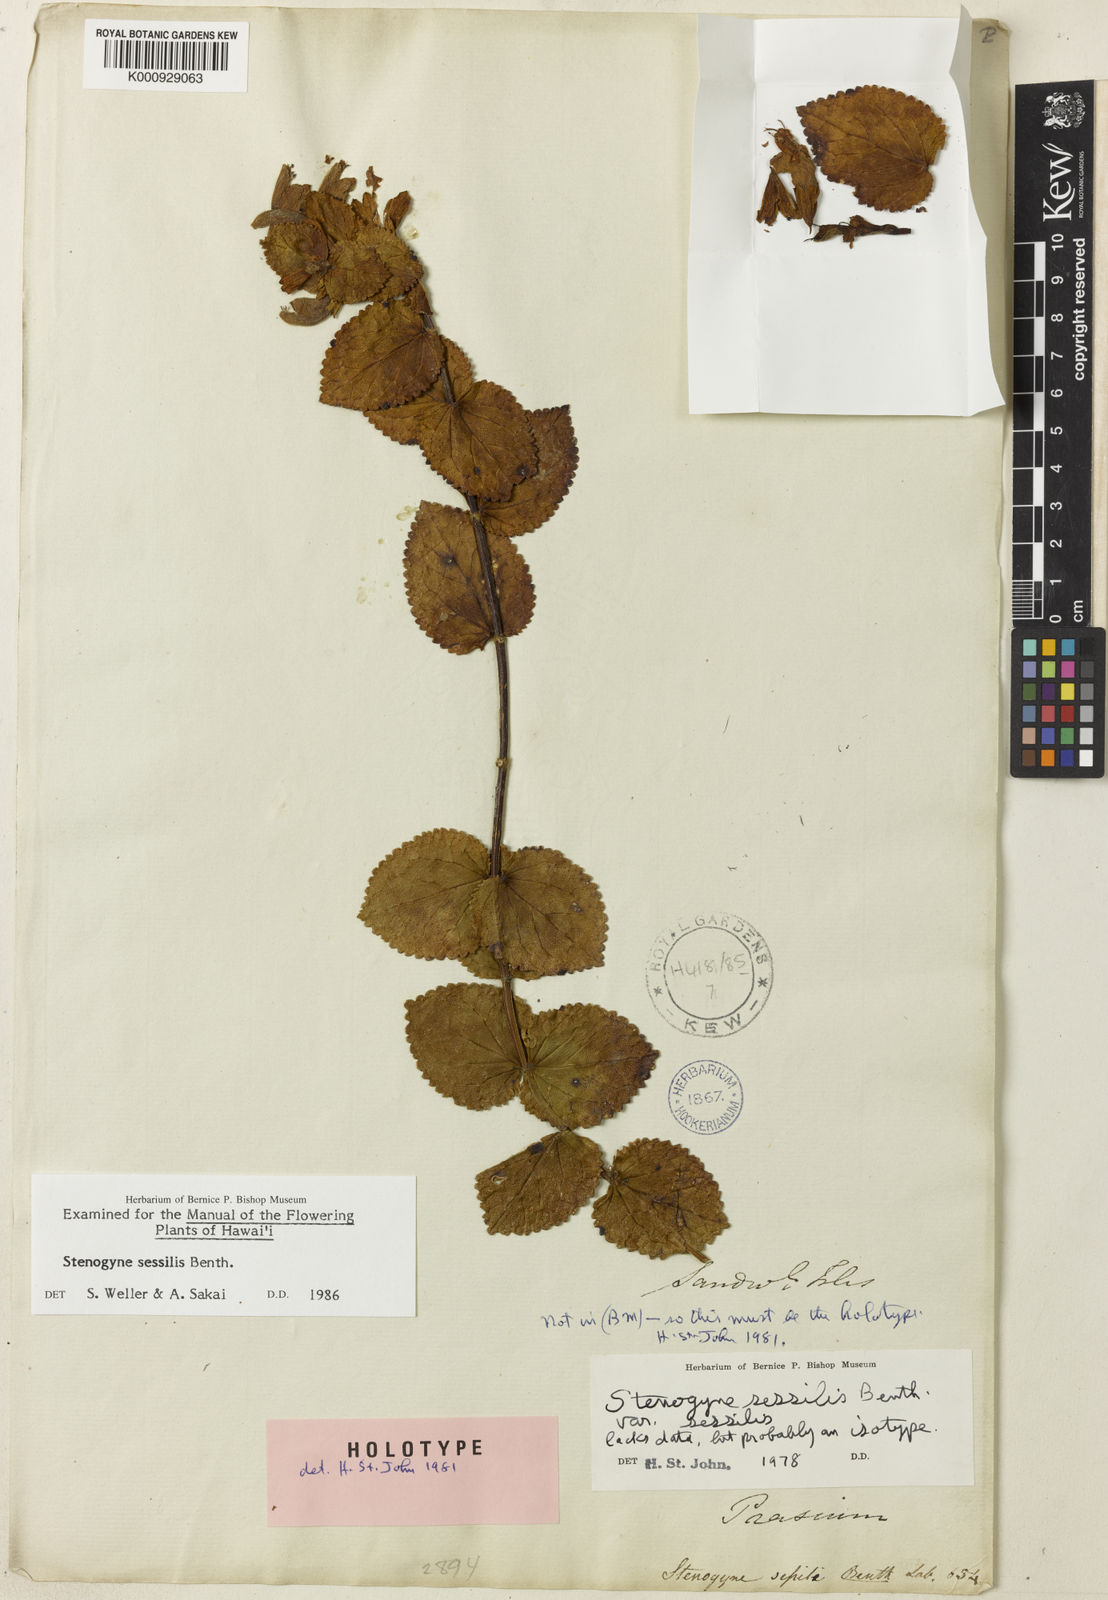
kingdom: Plantae
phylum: Tracheophyta
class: Magnoliopsida
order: Lamiales
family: Lamiaceae
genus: Stenogyne
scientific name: Stenogyne sessilis
